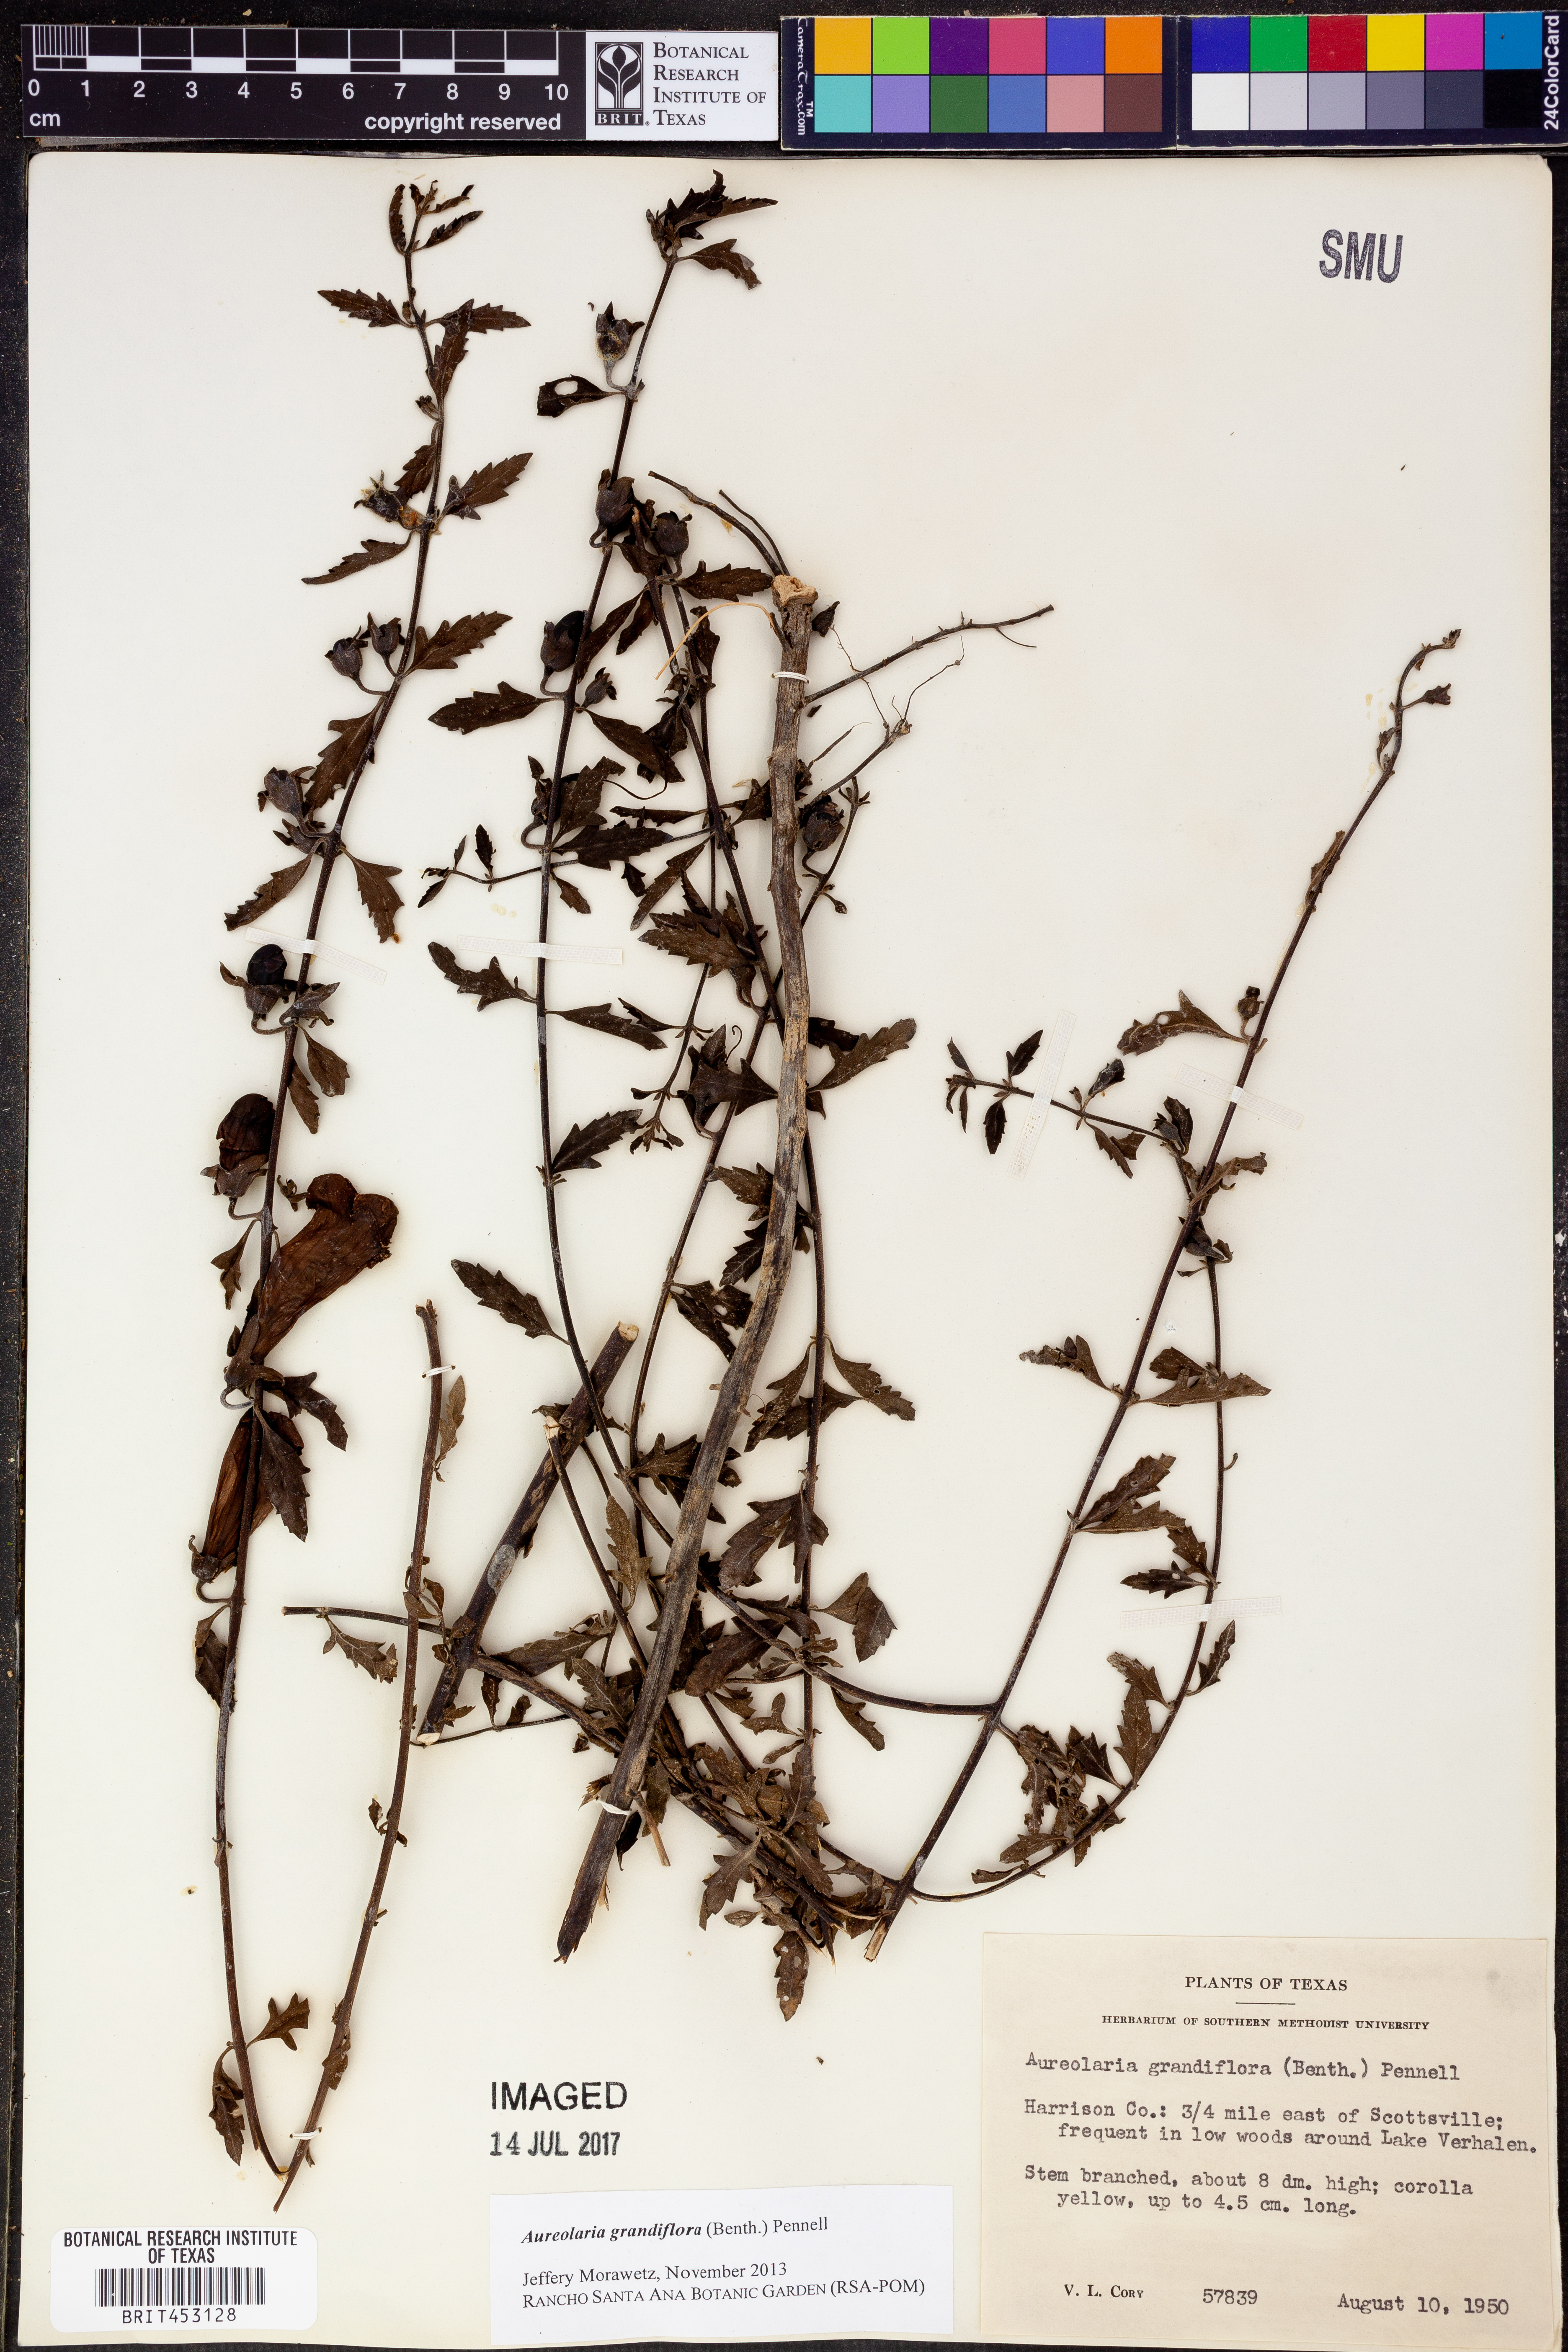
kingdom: Plantae
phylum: Tracheophyta
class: Magnoliopsida
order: Lamiales
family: Orobanchaceae
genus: Aureolaria
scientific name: Aureolaria grandiflora
